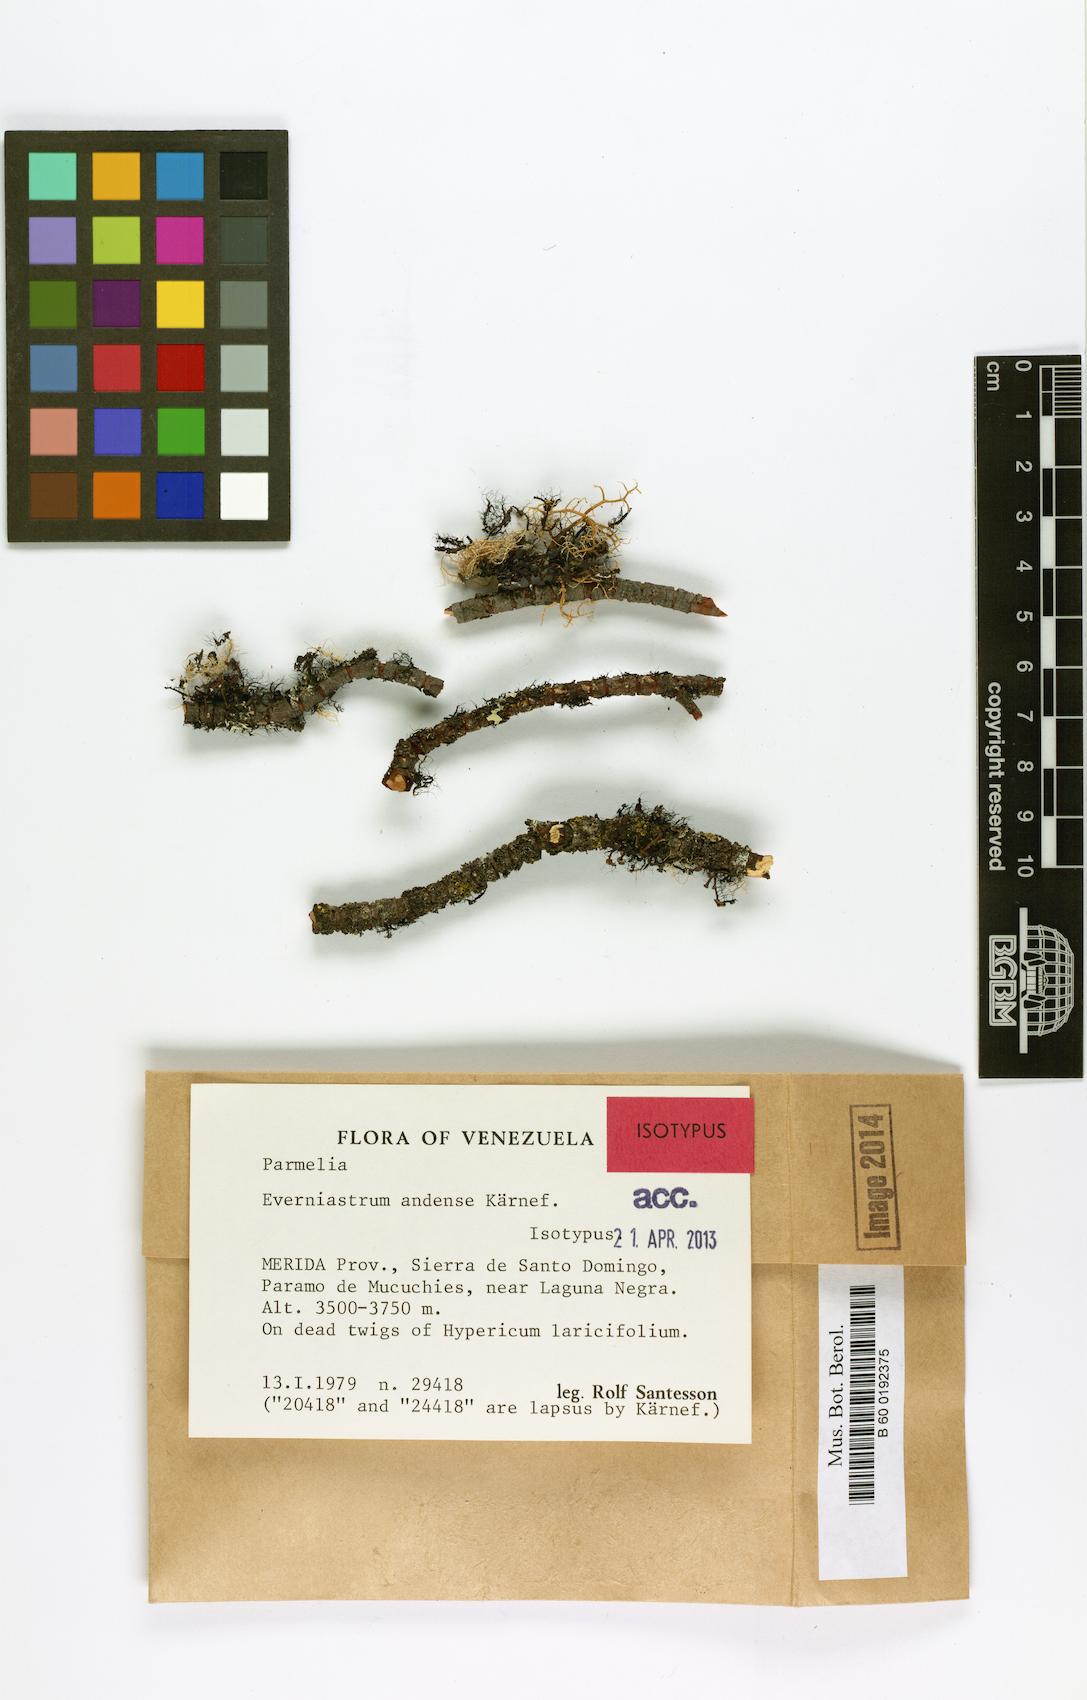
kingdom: Fungi
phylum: Ascomycota
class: Lecanoromycetes
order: Lecanorales
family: Parmeliaceae
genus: Everniastrum
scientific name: Everniastrum
